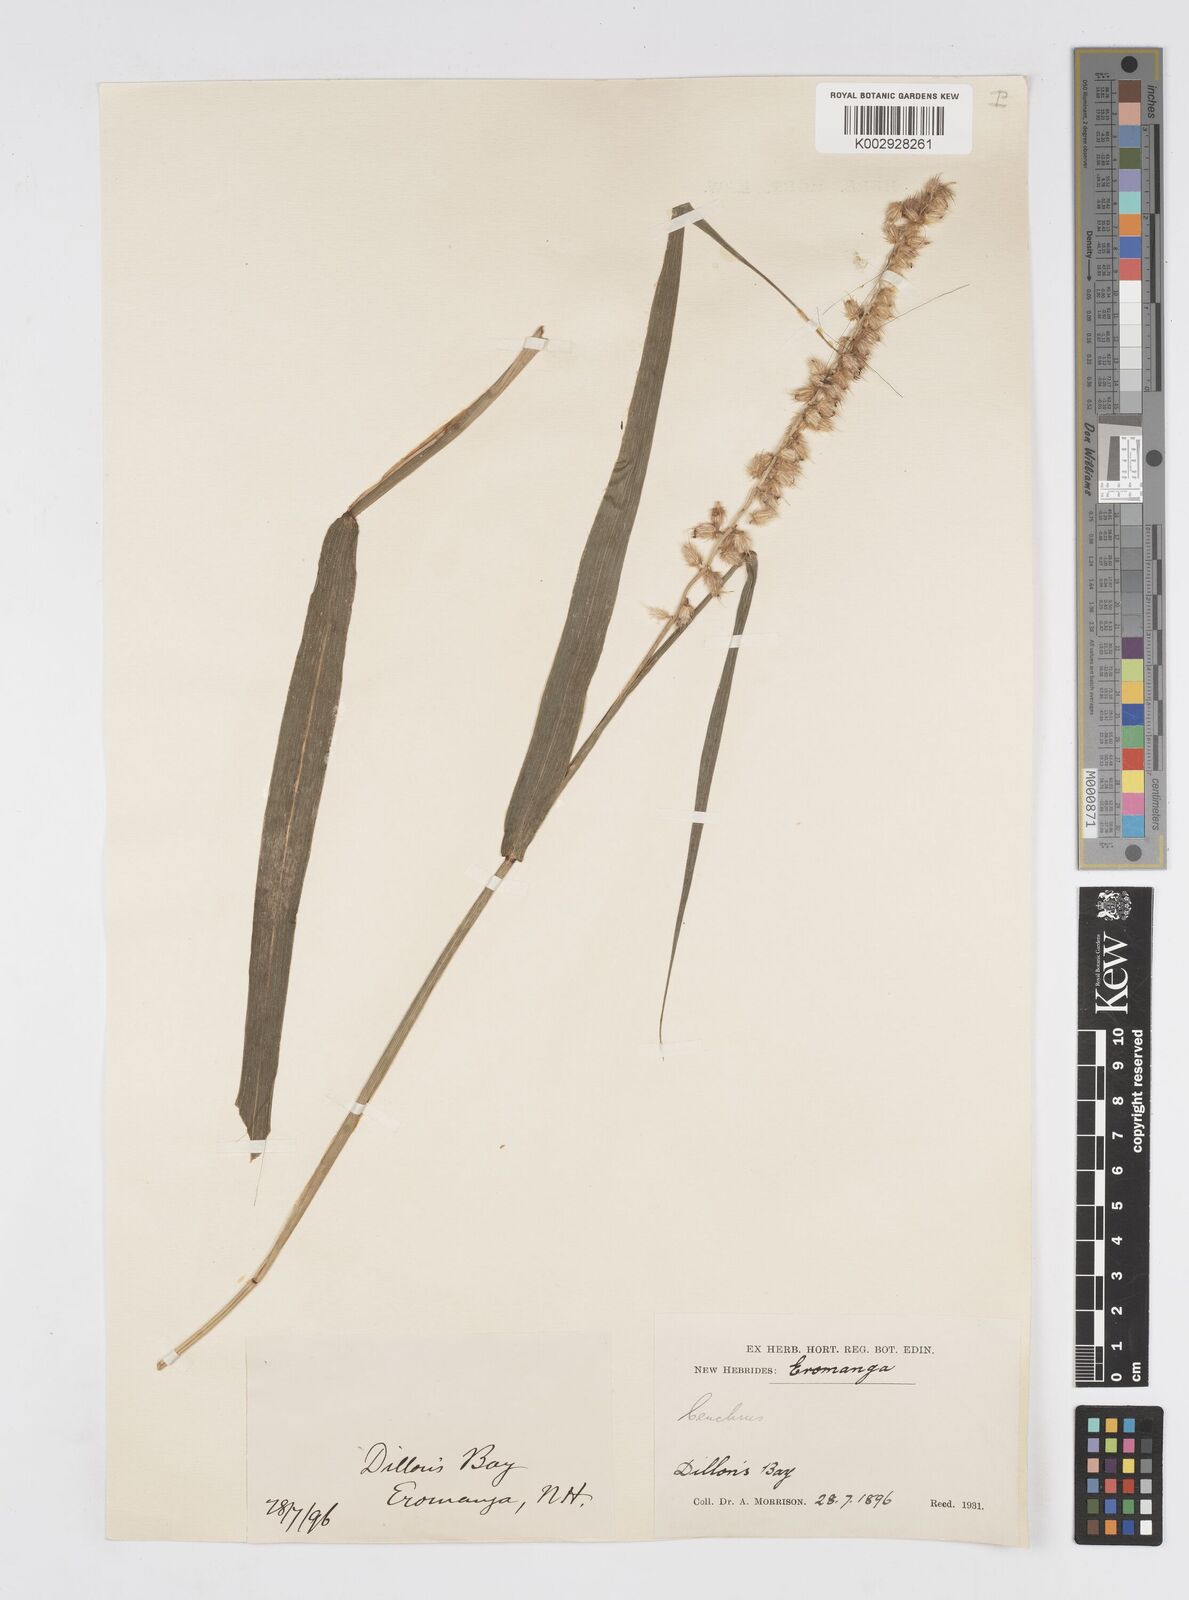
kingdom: Plantae
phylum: Tracheophyta
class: Liliopsida
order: Poales
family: Poaceae
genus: Cenchrus
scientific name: Cenchrus caliculatus
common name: Large bur grass
